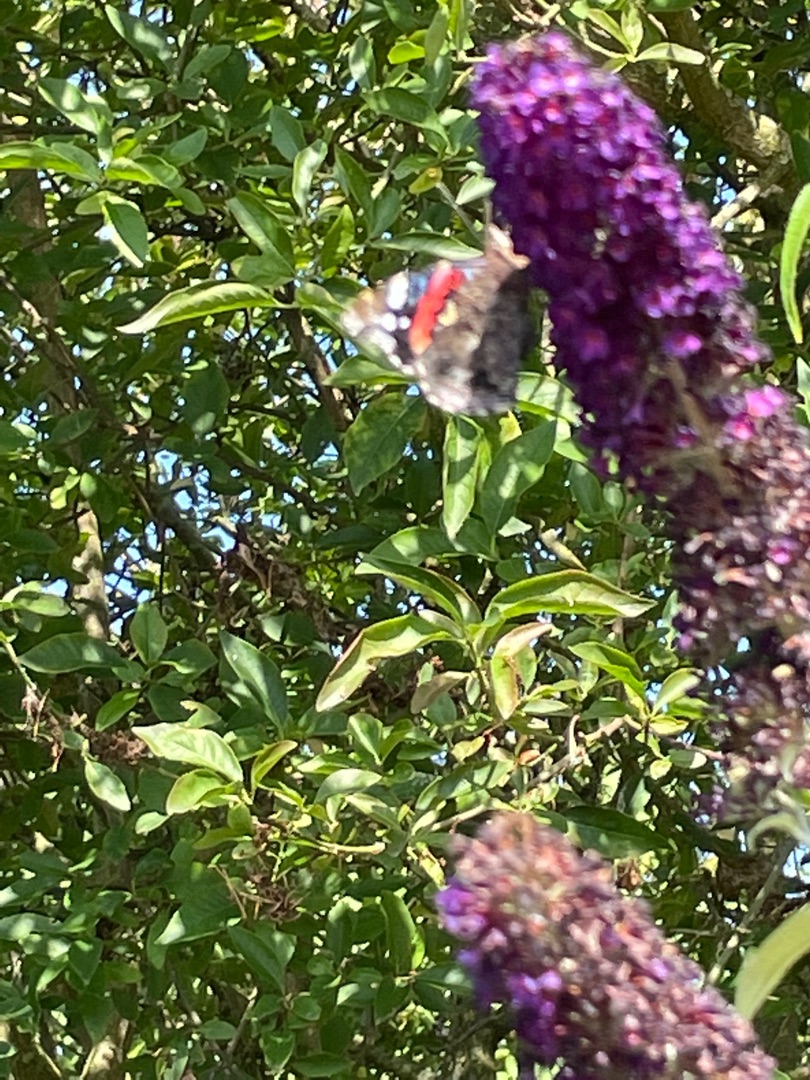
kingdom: Animalia
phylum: Arthropoda
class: Insecta
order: Lepidoptera
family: Nymphalidae
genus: Vanessa
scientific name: Vanessa atalanta
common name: Admiral
